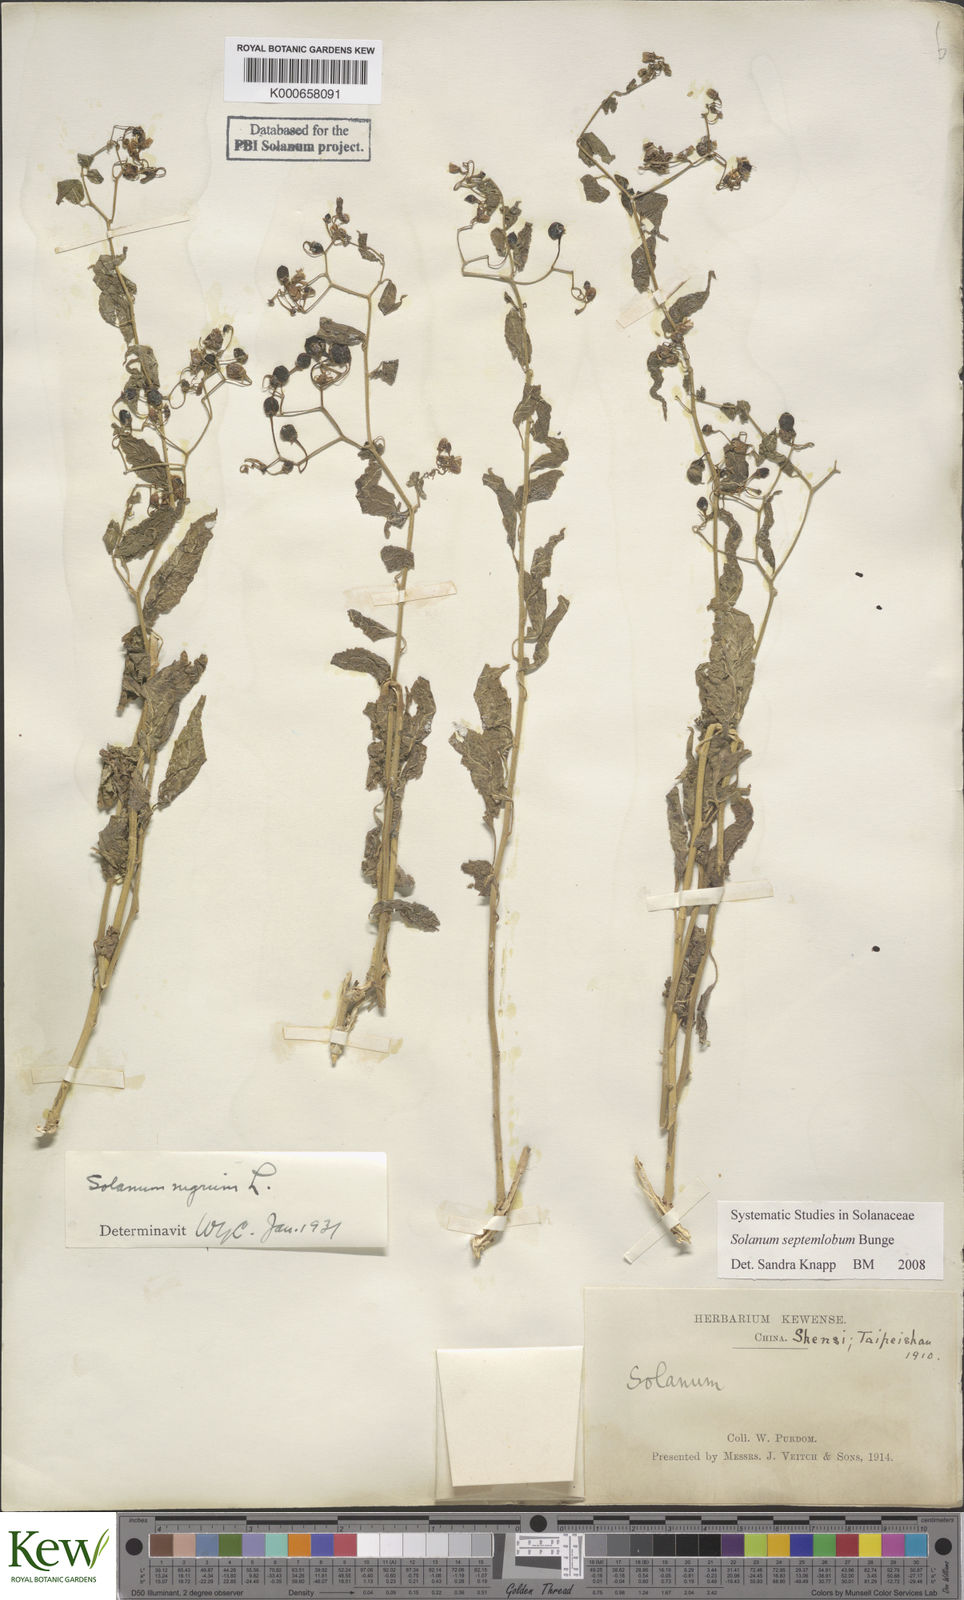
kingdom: Plantae
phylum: Tracheophyta
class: Magnoliopsida
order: Solanales
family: Solanaceae
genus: Solanum
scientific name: Solanum septemlobum
